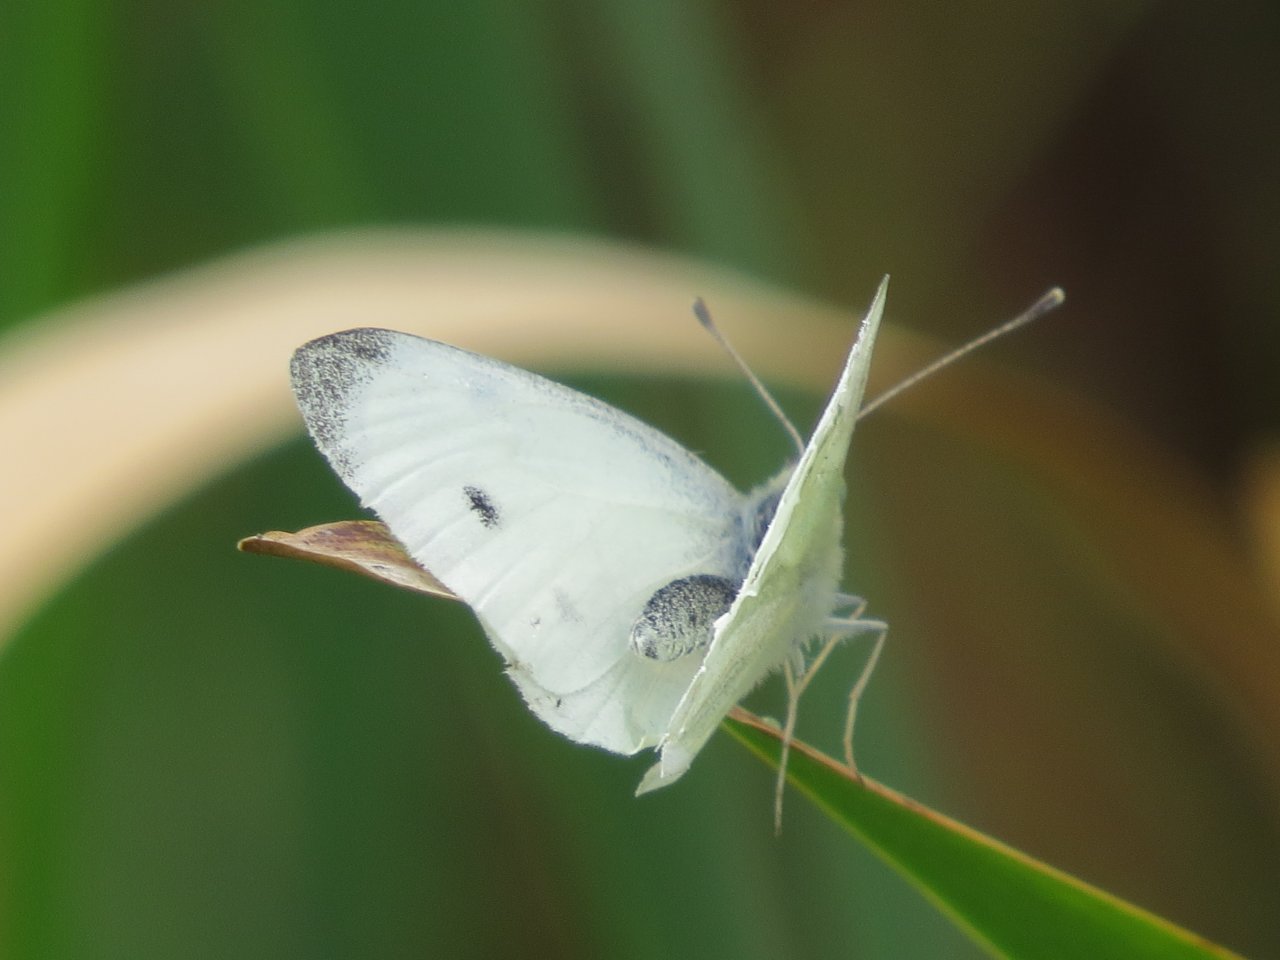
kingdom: Animalia
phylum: Arthropoda
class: Insecta
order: Lepidoptera
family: Pieridae
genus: Pieris
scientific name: Pieris rapae
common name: Cabbage White
